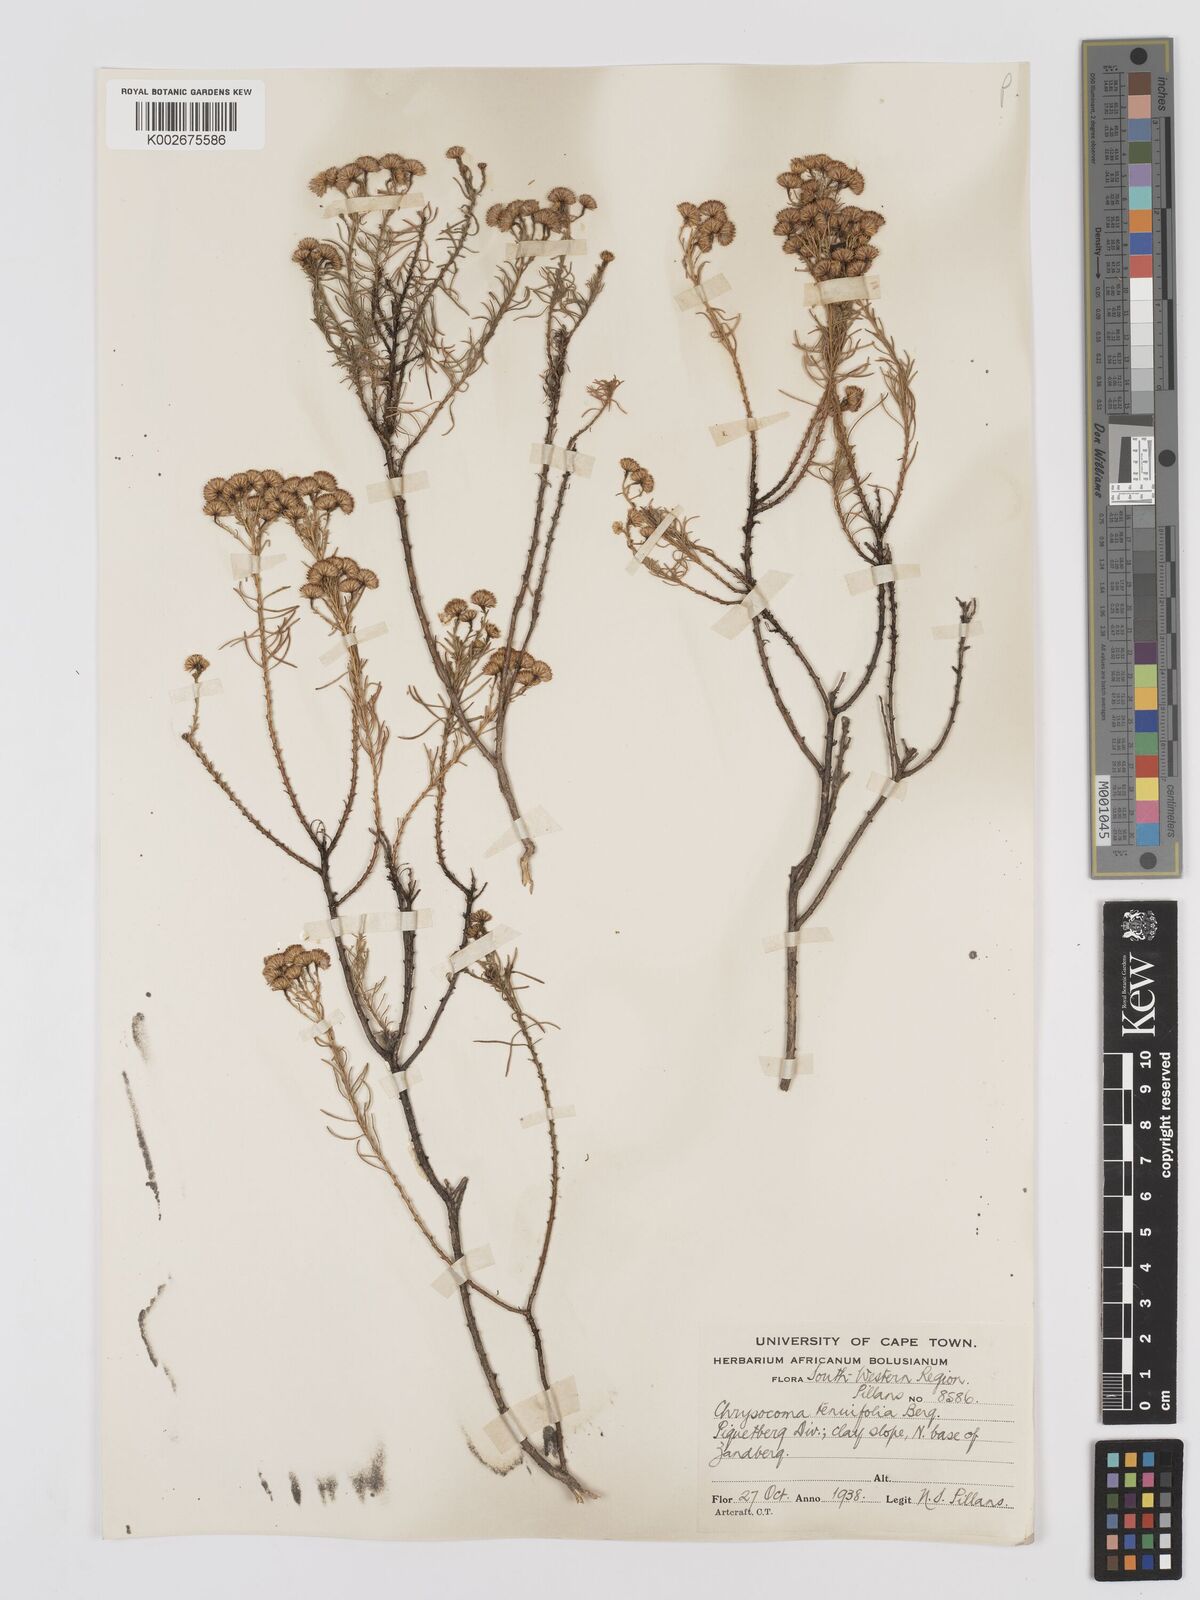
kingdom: Plantae
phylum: Tracheophyta
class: Magnoliopsida
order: Asterales
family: Asteraceae
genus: Chrysocoma
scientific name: Chrysocoma ciliata
